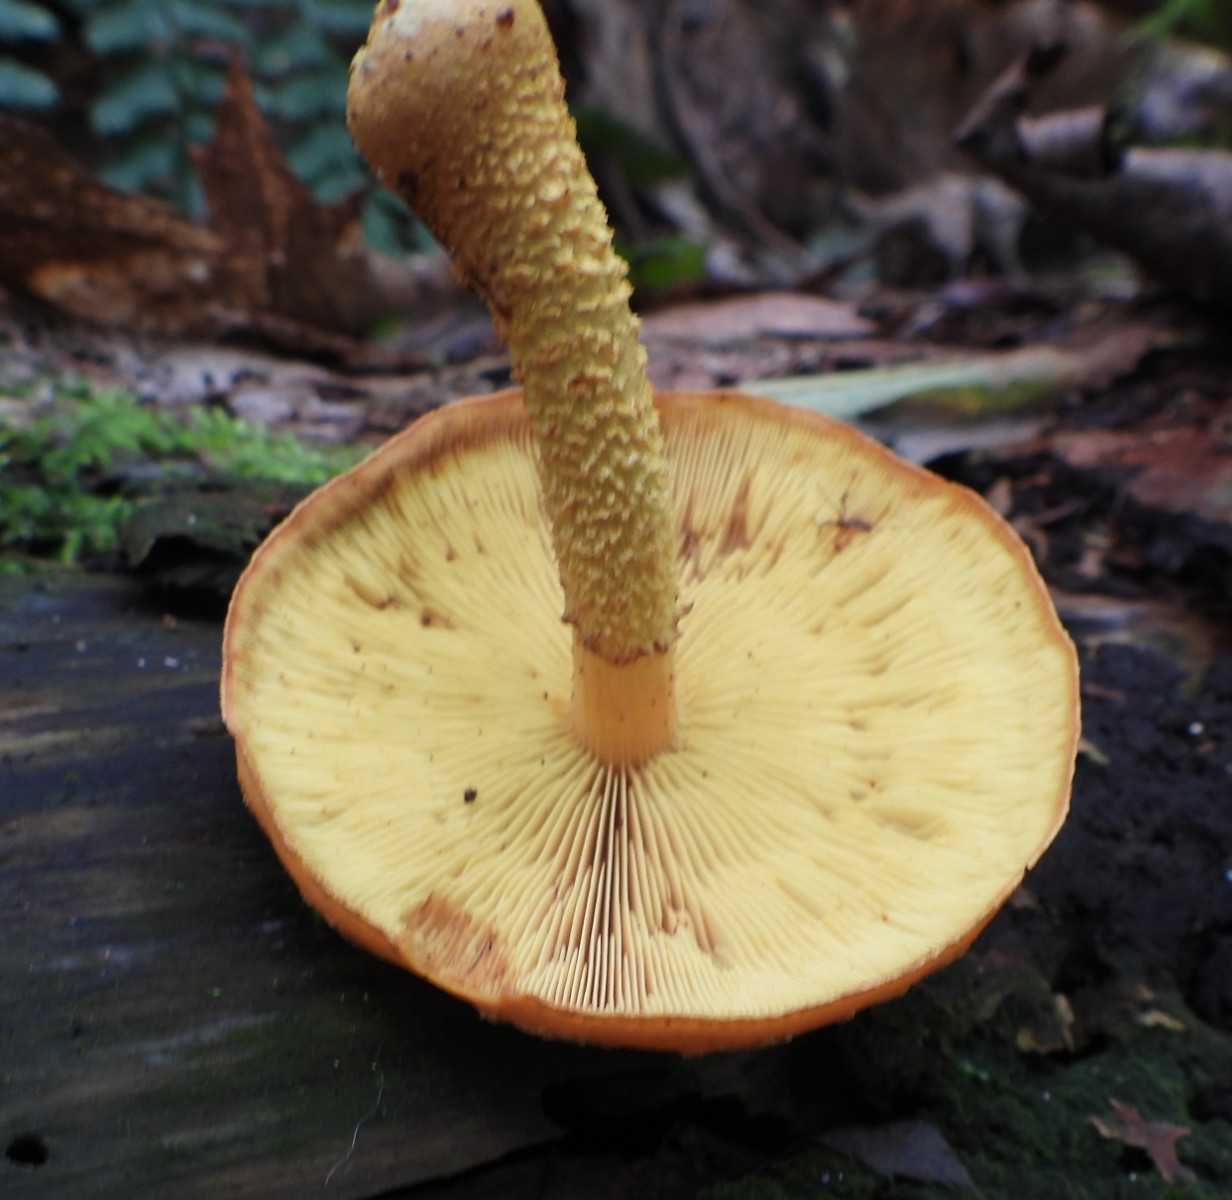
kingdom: Fungi
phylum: Basidiomycota
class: Agaricomycetes
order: Agaricales
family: Strophariaceae
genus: Pholiota
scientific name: Pholiota flammans
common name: flamme-skælhat
